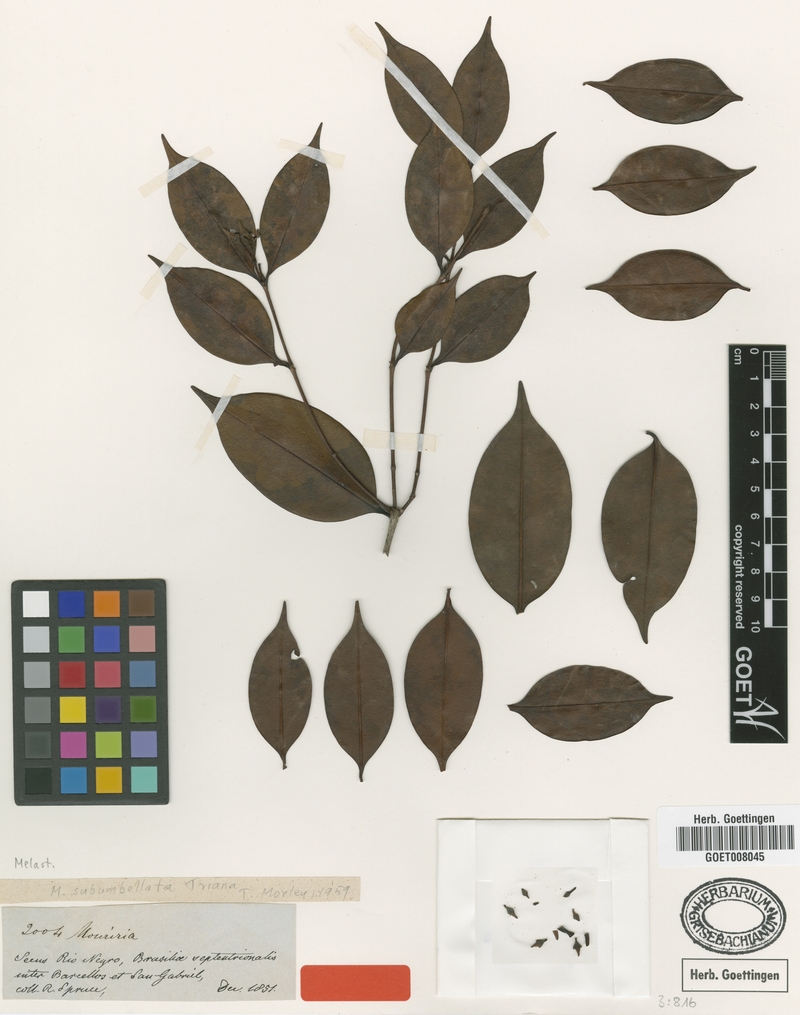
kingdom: Plantae
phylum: Tracheophyta
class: Magnoliopsida
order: Myrtales
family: Melastomataceae
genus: Mouriri
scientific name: Mouriri subumbellata
